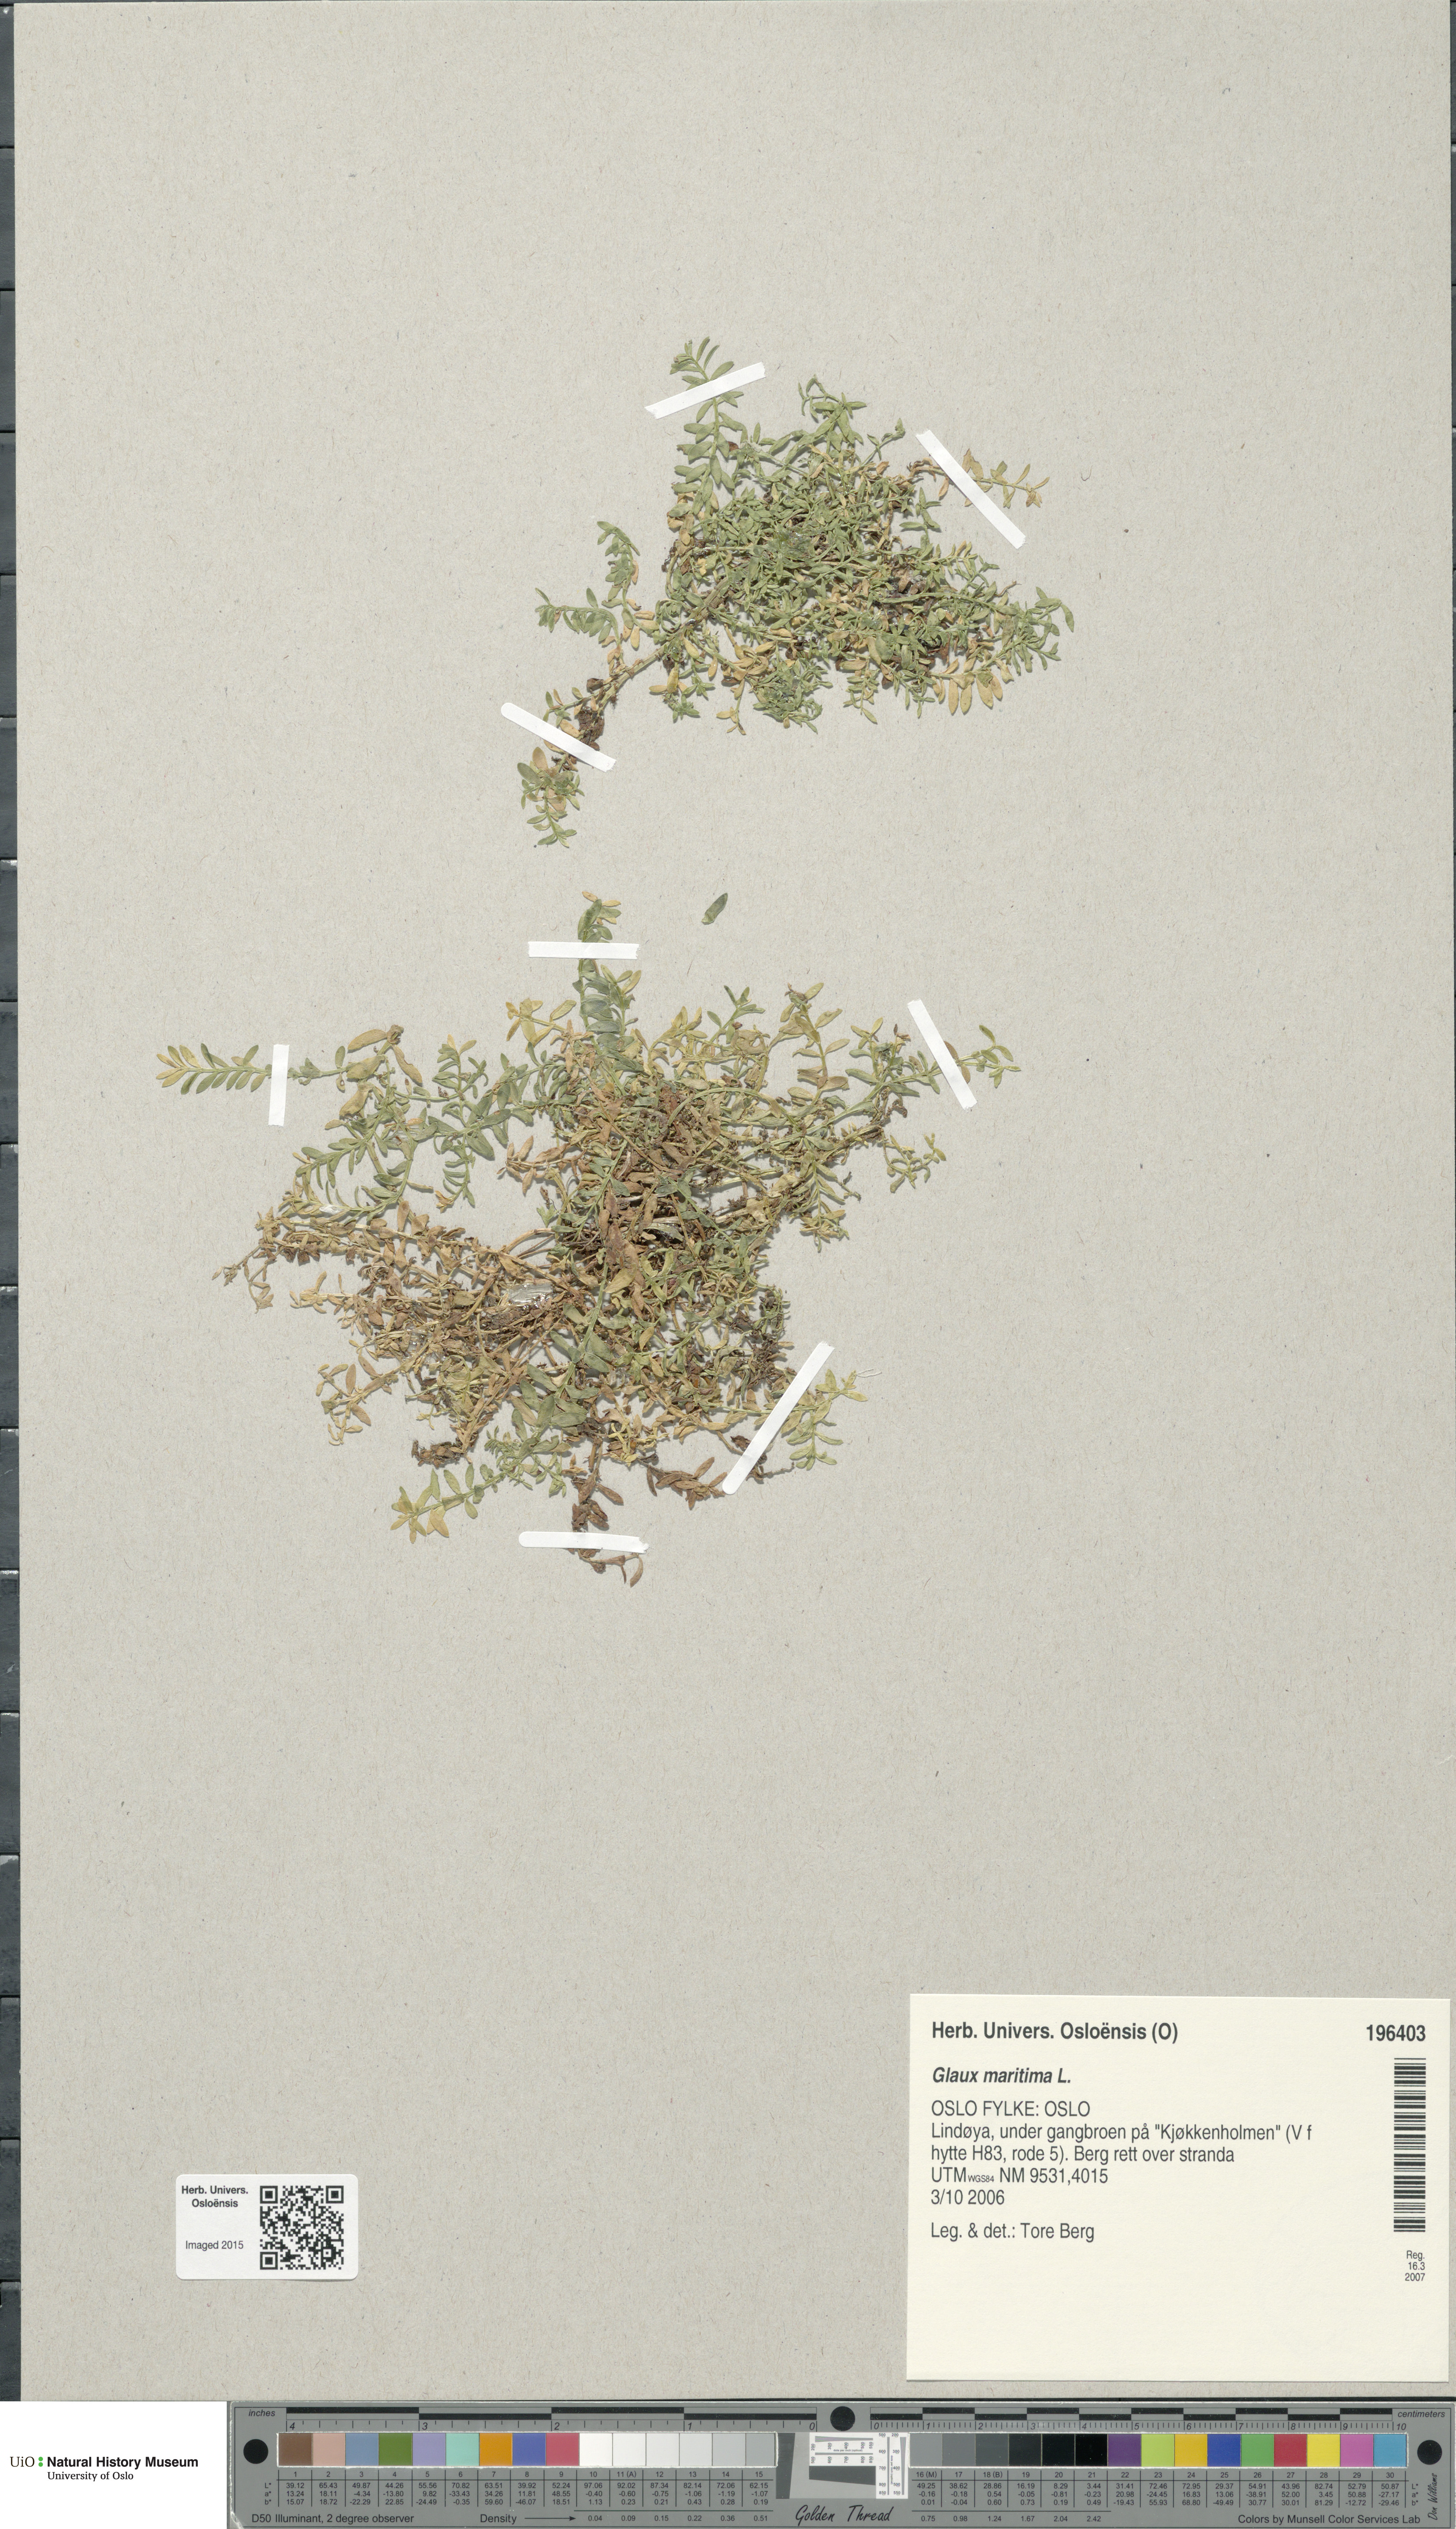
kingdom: Plantae
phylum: Tracheophyta
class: Magnoliopsida
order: Ericales
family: Primulaceae
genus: Lysimachia
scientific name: Lysimachia maritima
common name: Sea milkwort
